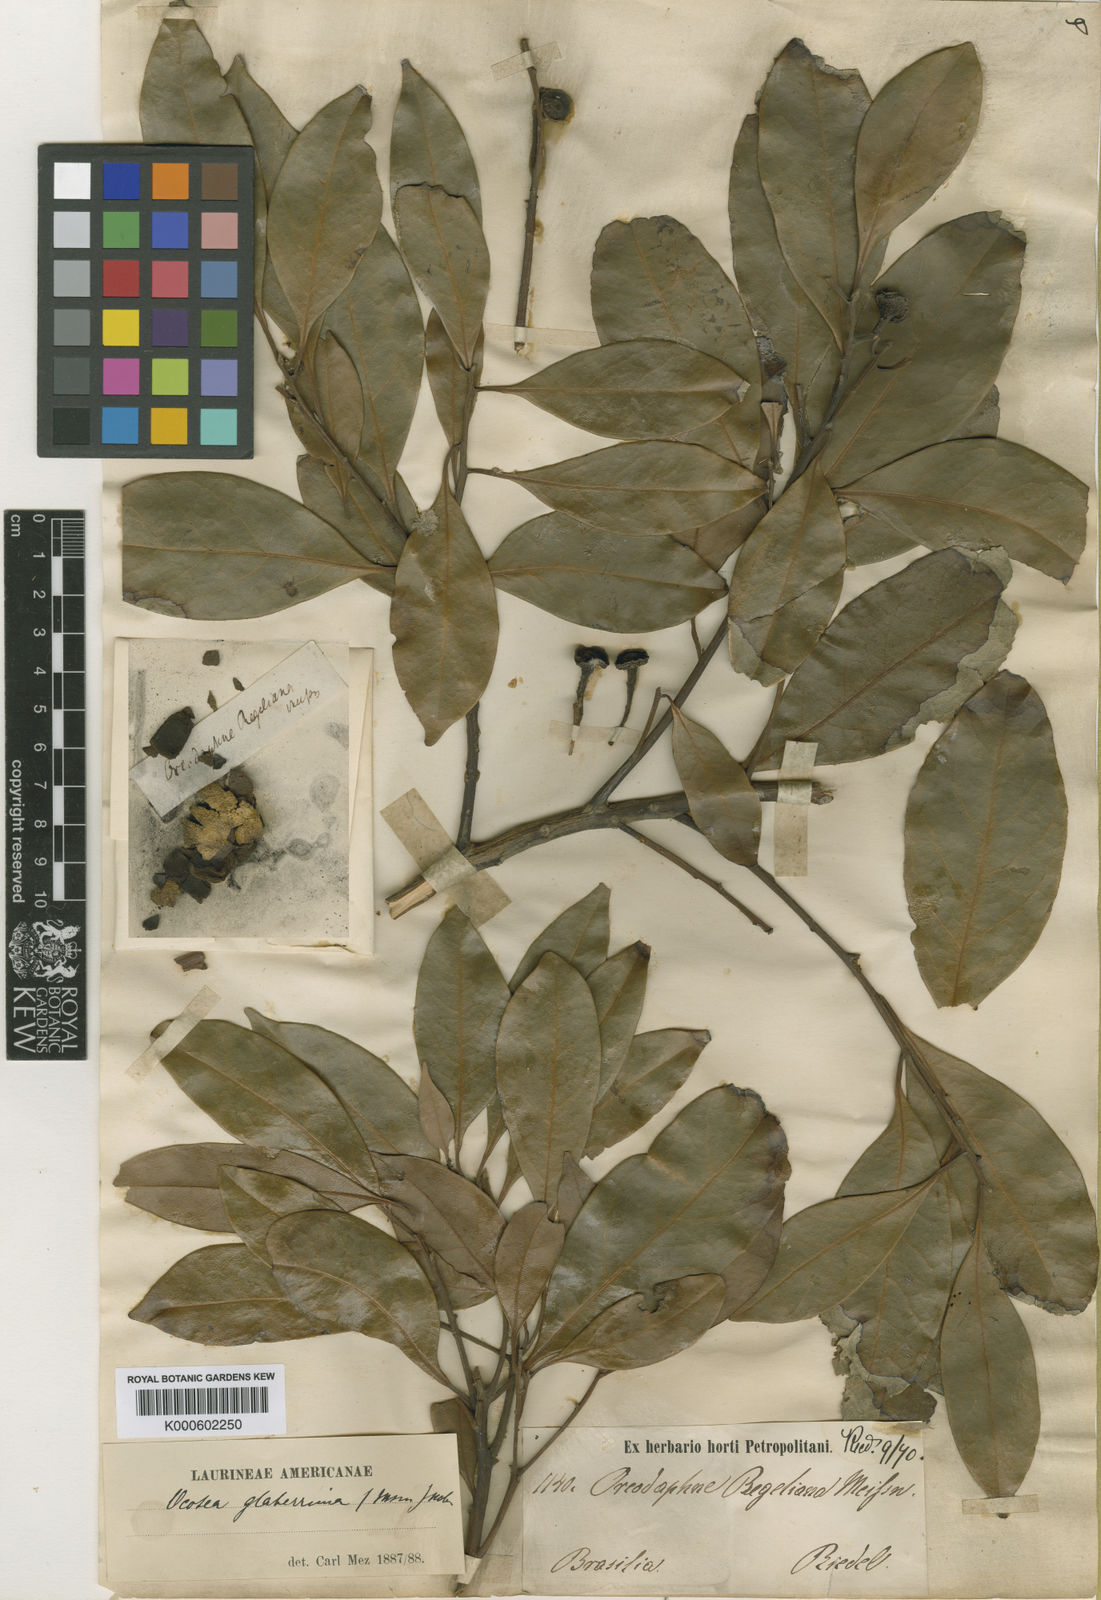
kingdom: Plantae
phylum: Tracheophyta
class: Magnoliopsida
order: Laurales
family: Lauraceae
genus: Phoebe
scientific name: Phoebe lanceolata
